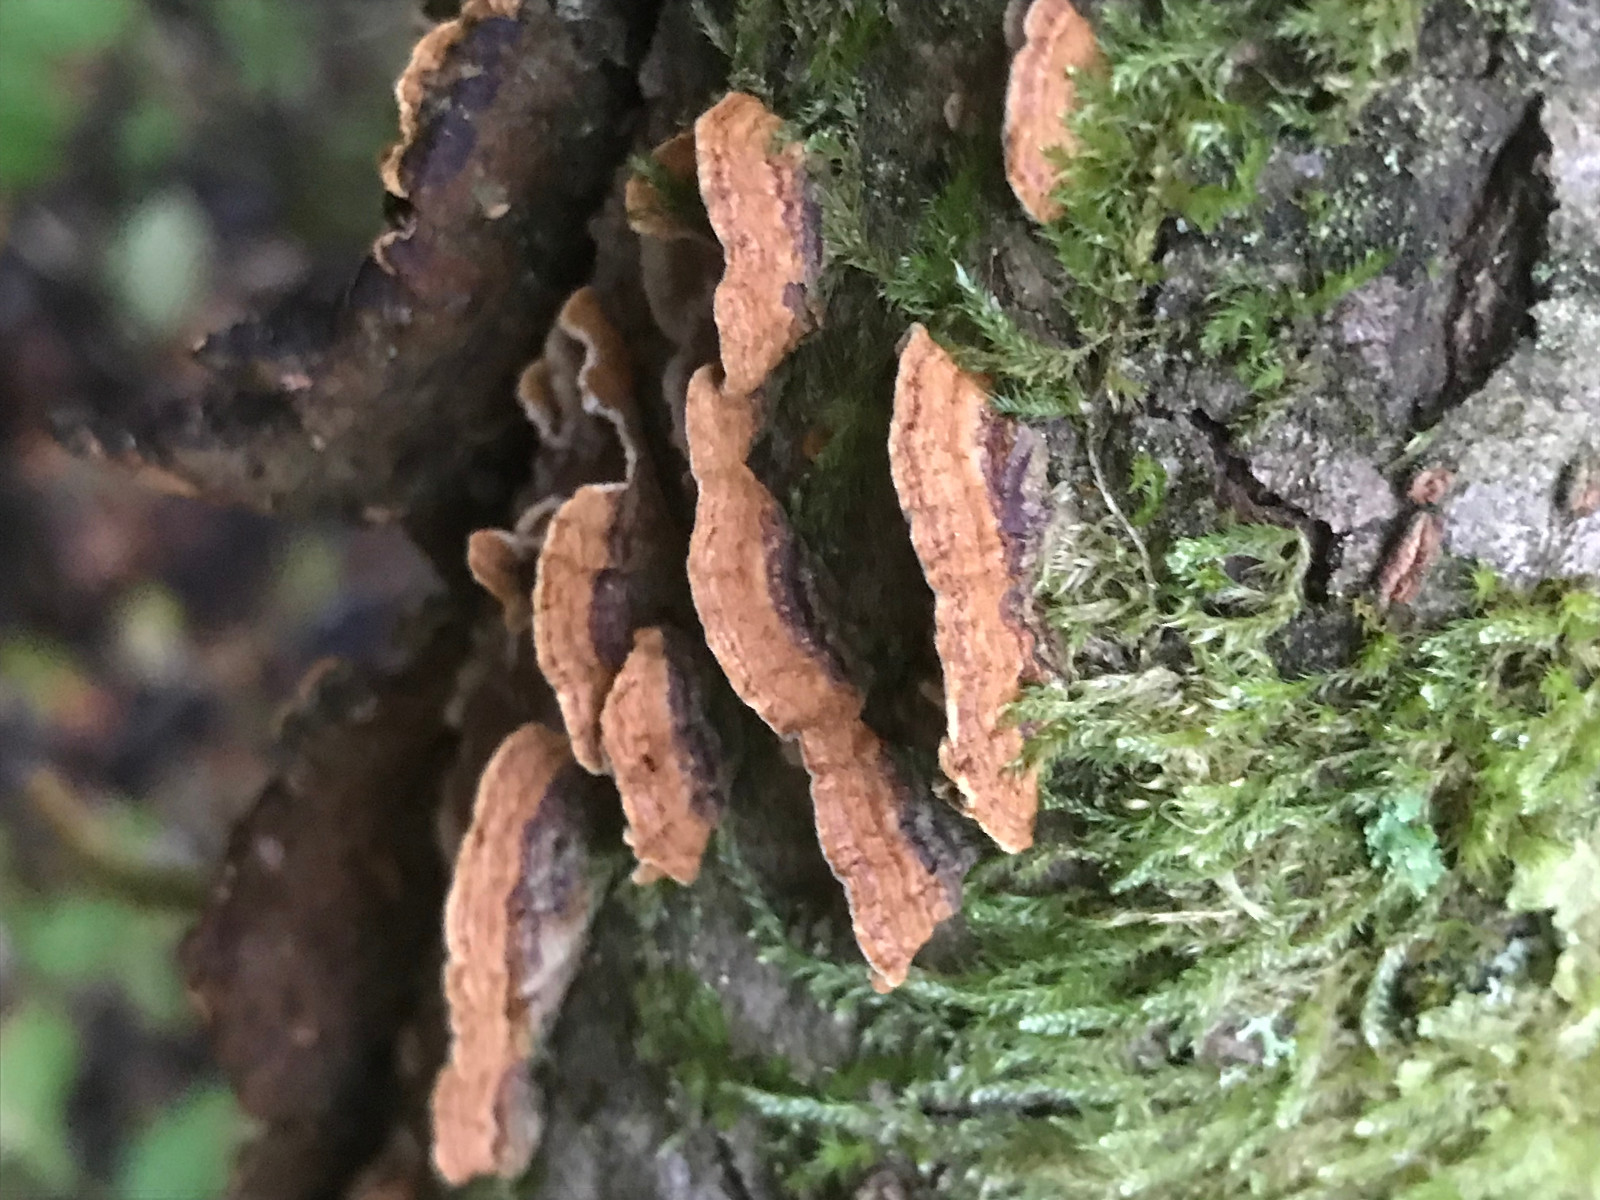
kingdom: Fungi
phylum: Basidiomycota
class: Agaricomycetes
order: Hymenochaetales
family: Hymenochaetaceae
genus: Hydnoporia
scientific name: Hydnoporia tabacina
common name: tobaksbrun ruslædersvamp
